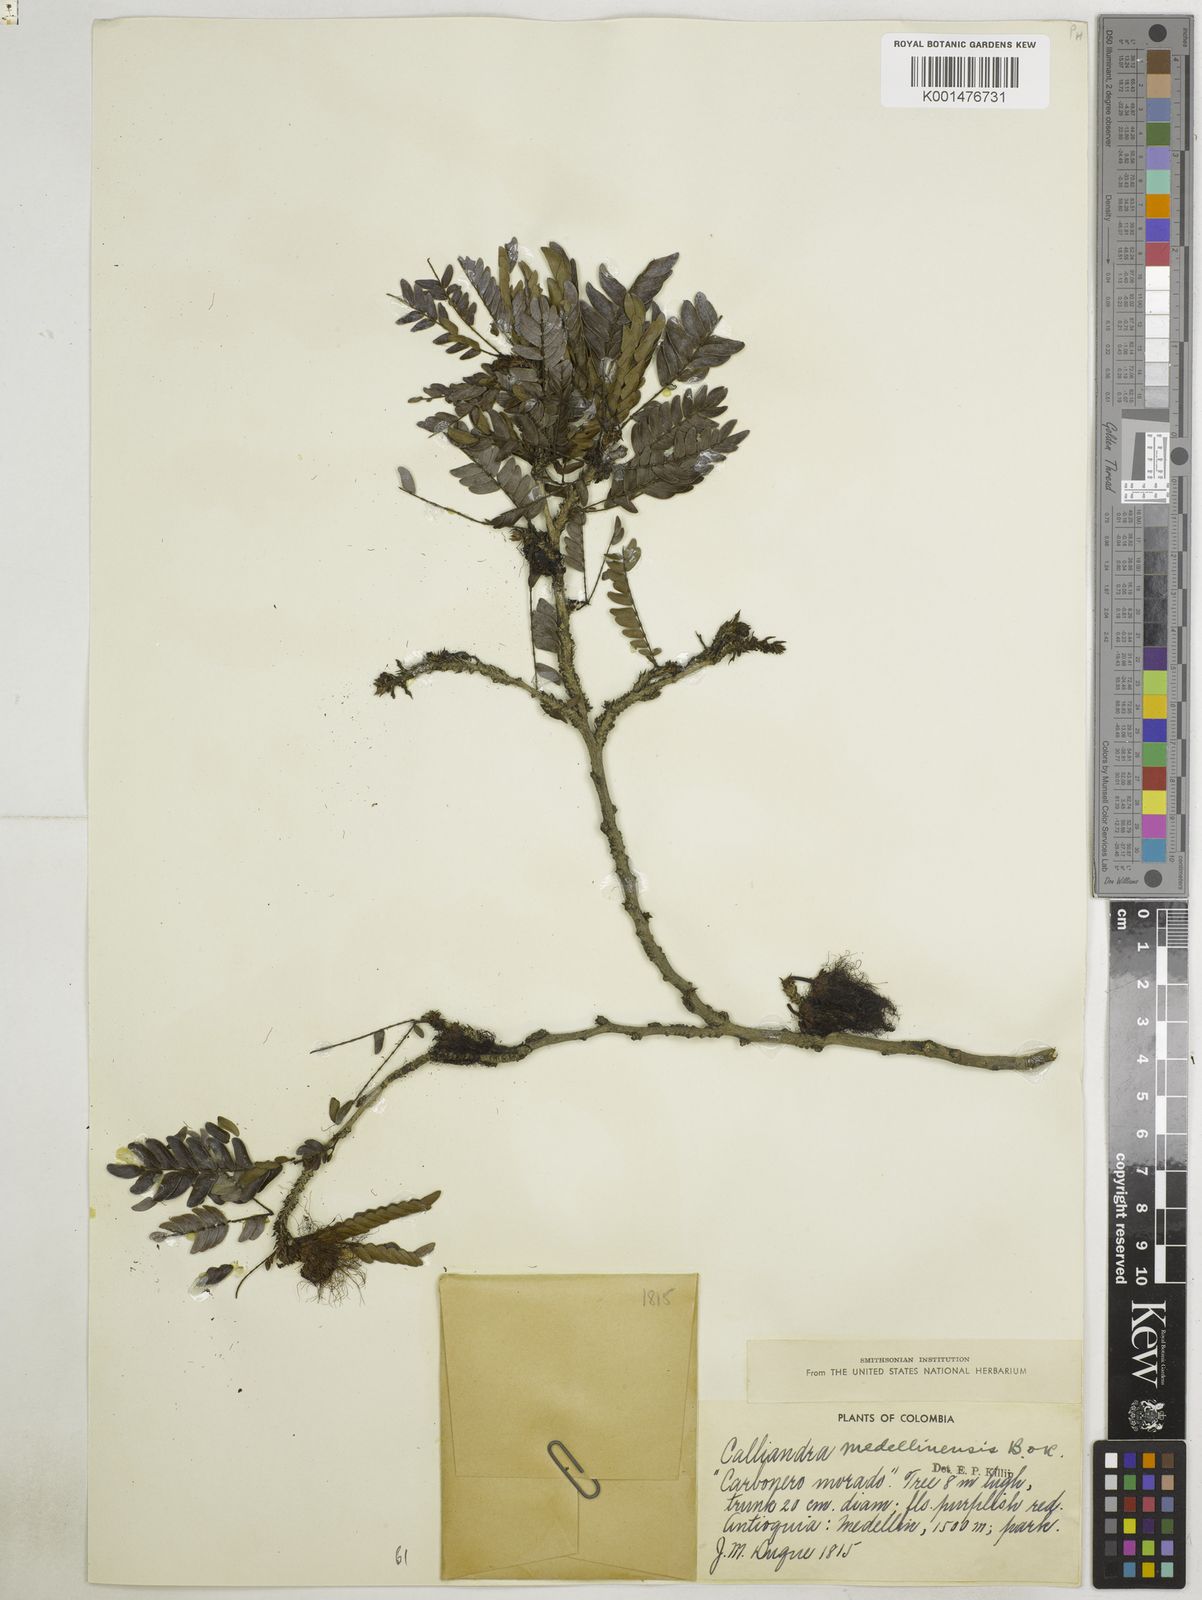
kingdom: Plantae
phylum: Tracheophyta
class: Magnoliopsida
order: Fabales
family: Fabaceae
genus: Calliandra
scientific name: Calliandra medellinensis
